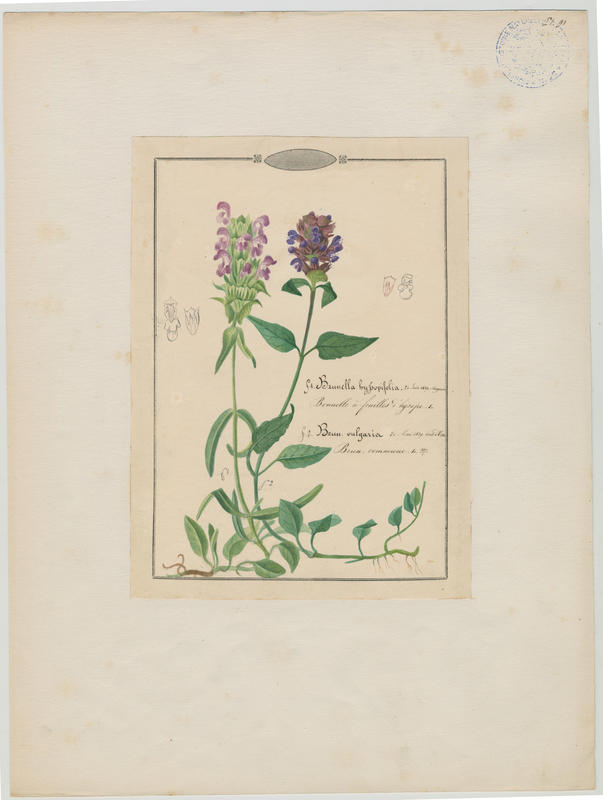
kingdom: Plantae
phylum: Tracheophyta
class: Magnoliopsida
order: Lamiales
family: Lamiaceae
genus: Prunella
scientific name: Prunella vulgaris
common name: Heal-all
